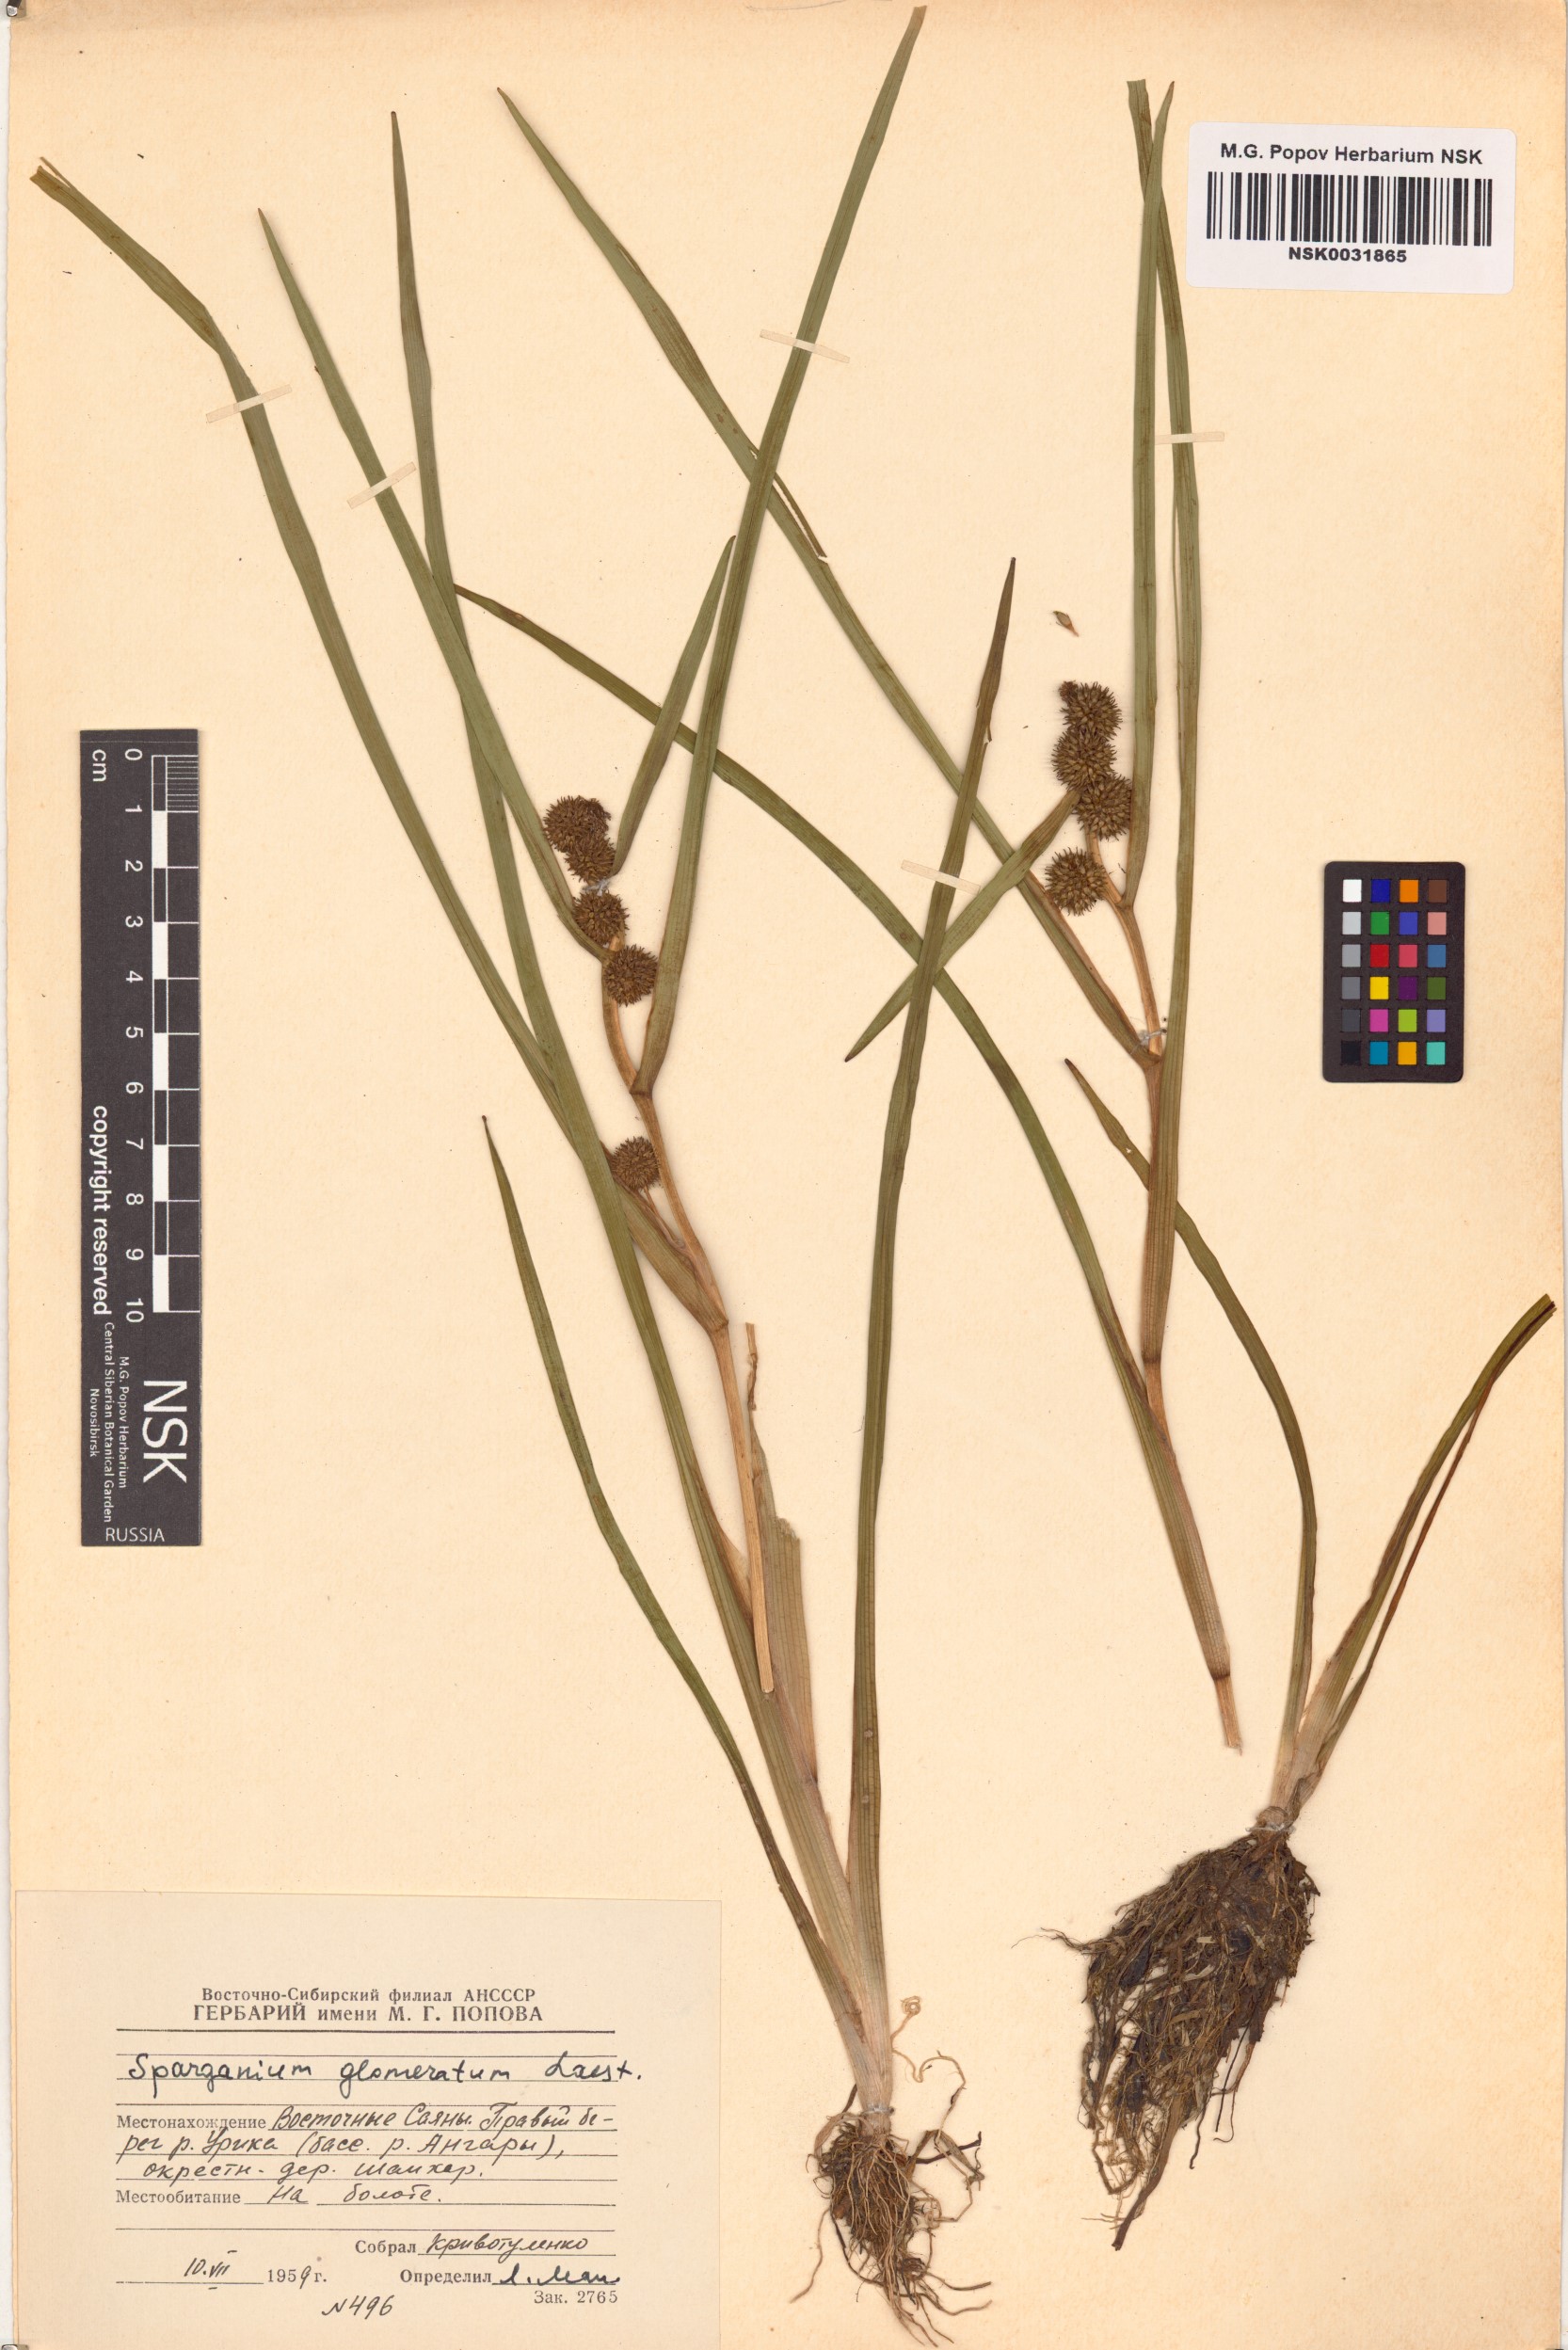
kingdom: Plantae
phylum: Tracheophyta
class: Liliopsida
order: Poales
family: Typhaceae
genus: Sparganium
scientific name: Sparganium glomeratum
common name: Clustered burreed
